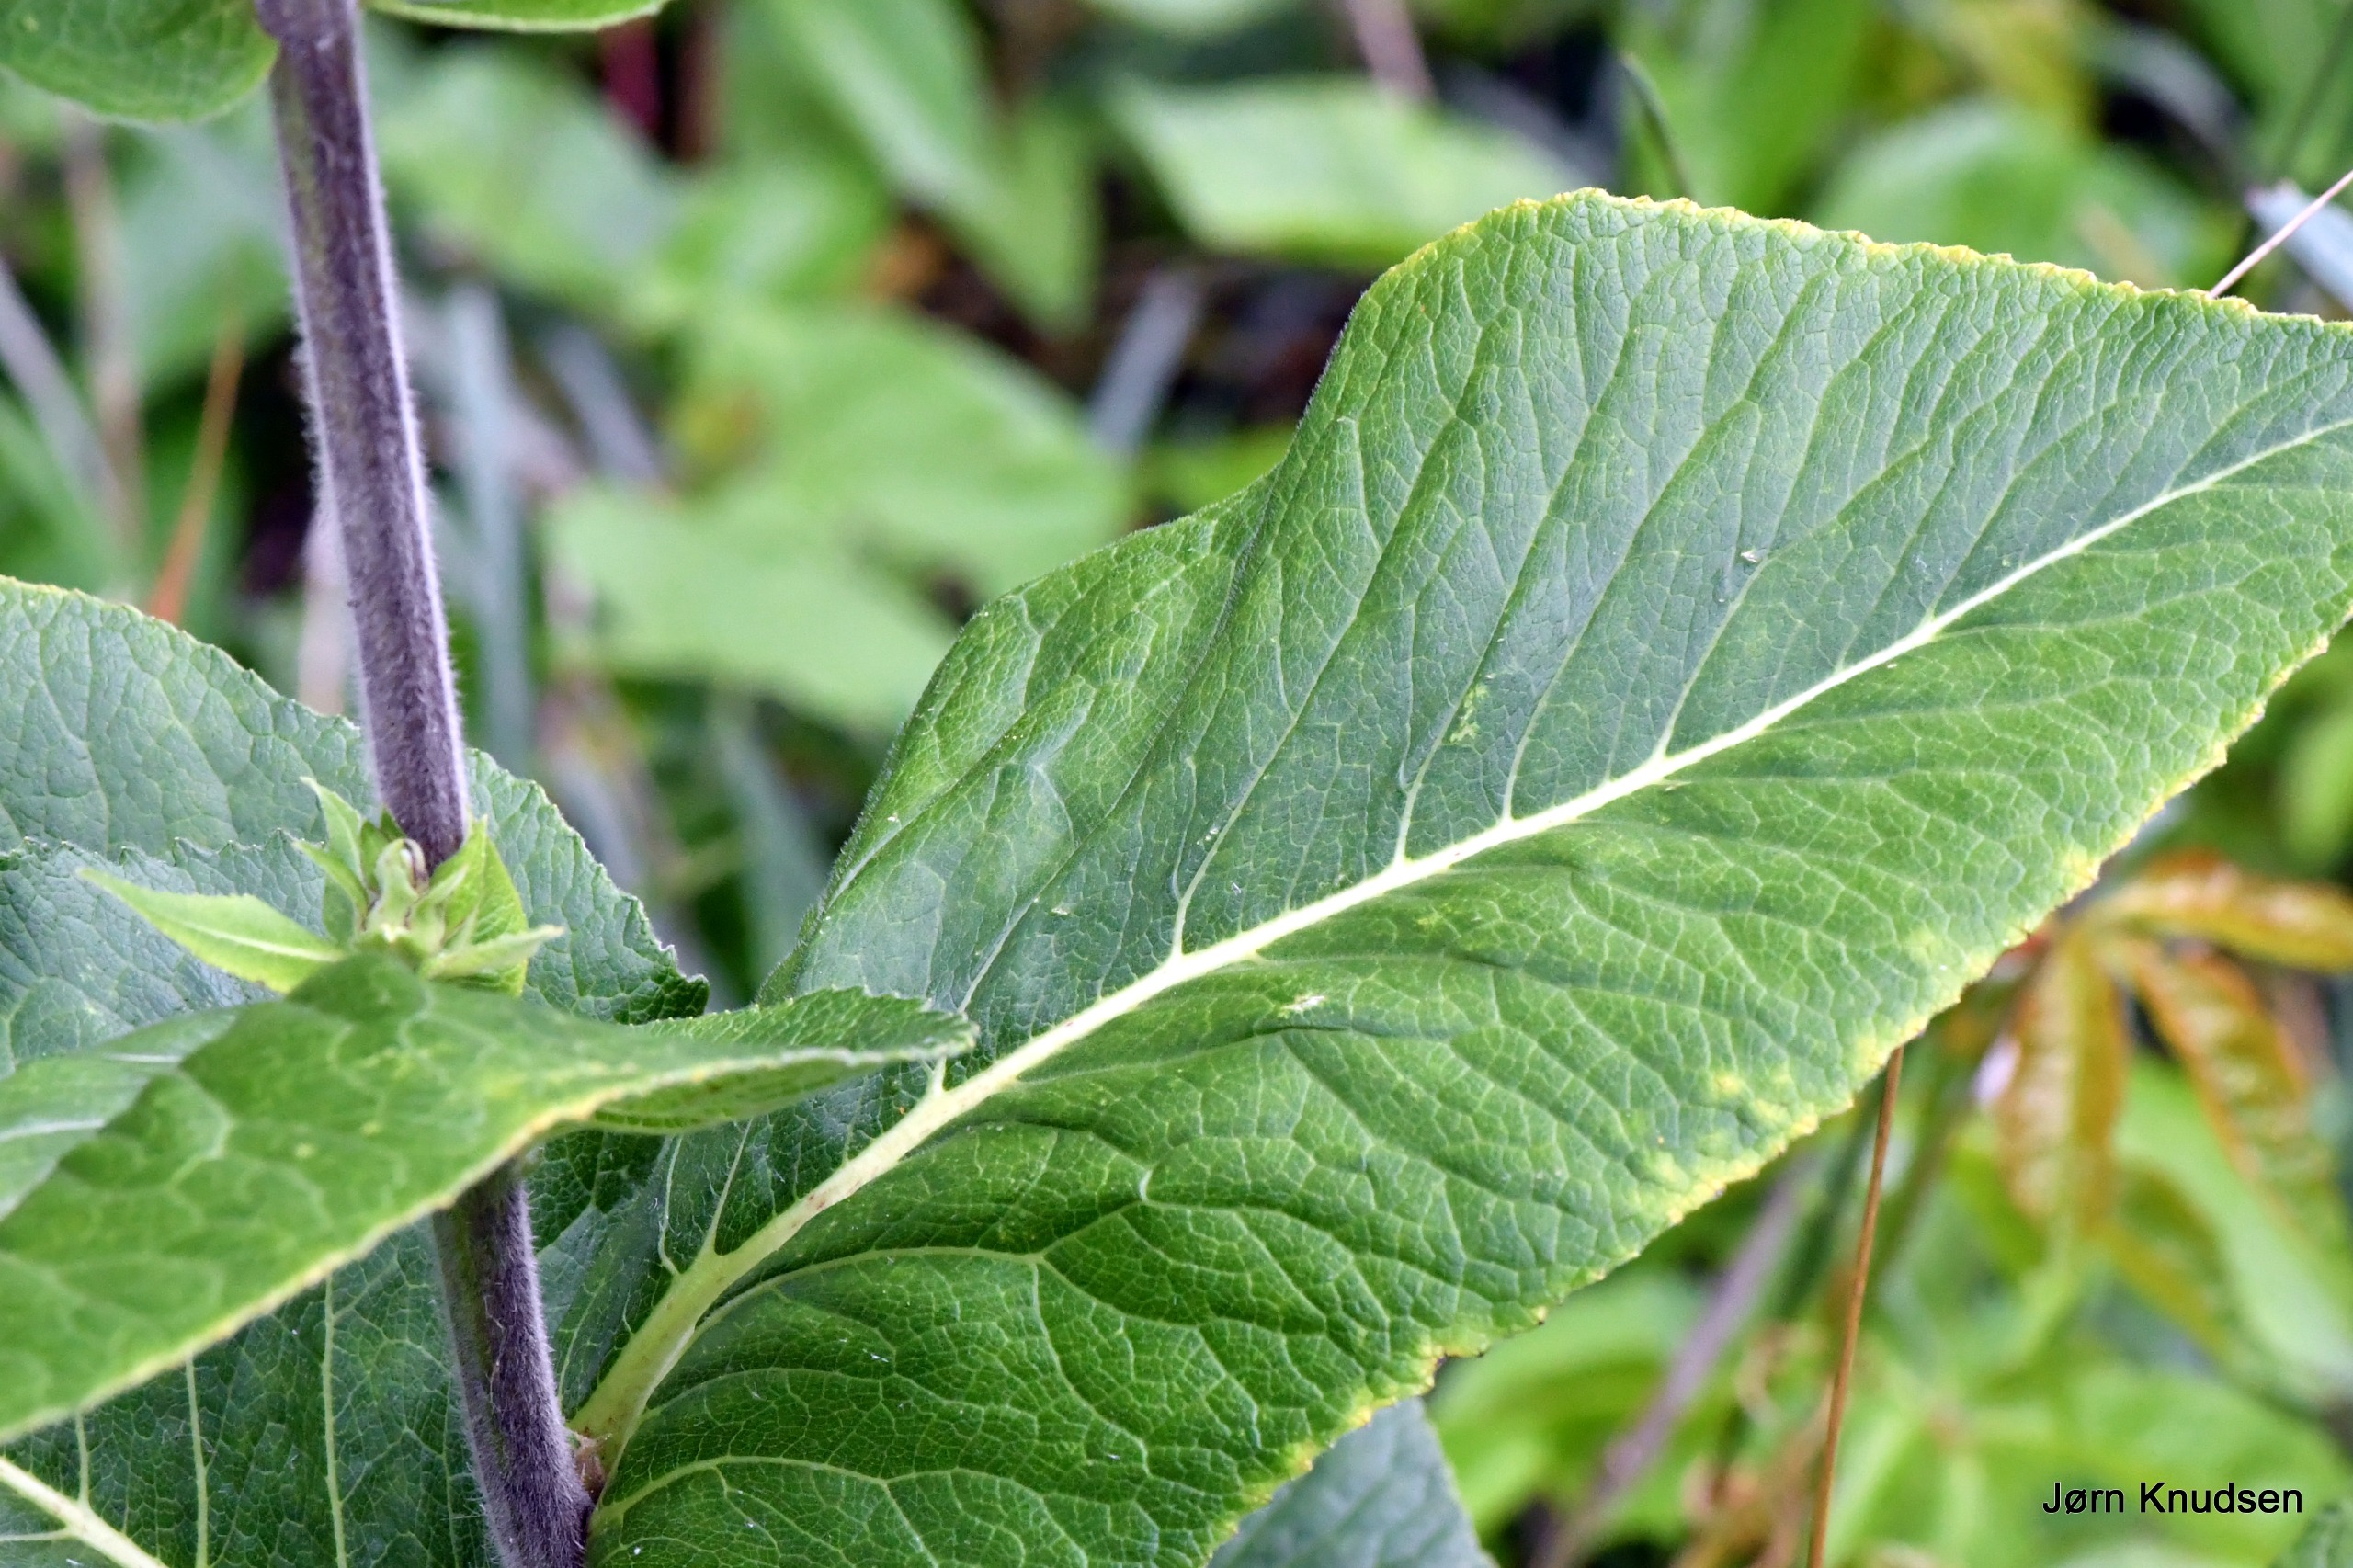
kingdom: Plantae
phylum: Tracheophyta
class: Magnoliopsida
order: Asterales
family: Asteraceae
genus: Inula
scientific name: Inula helenium
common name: Læge-alant
